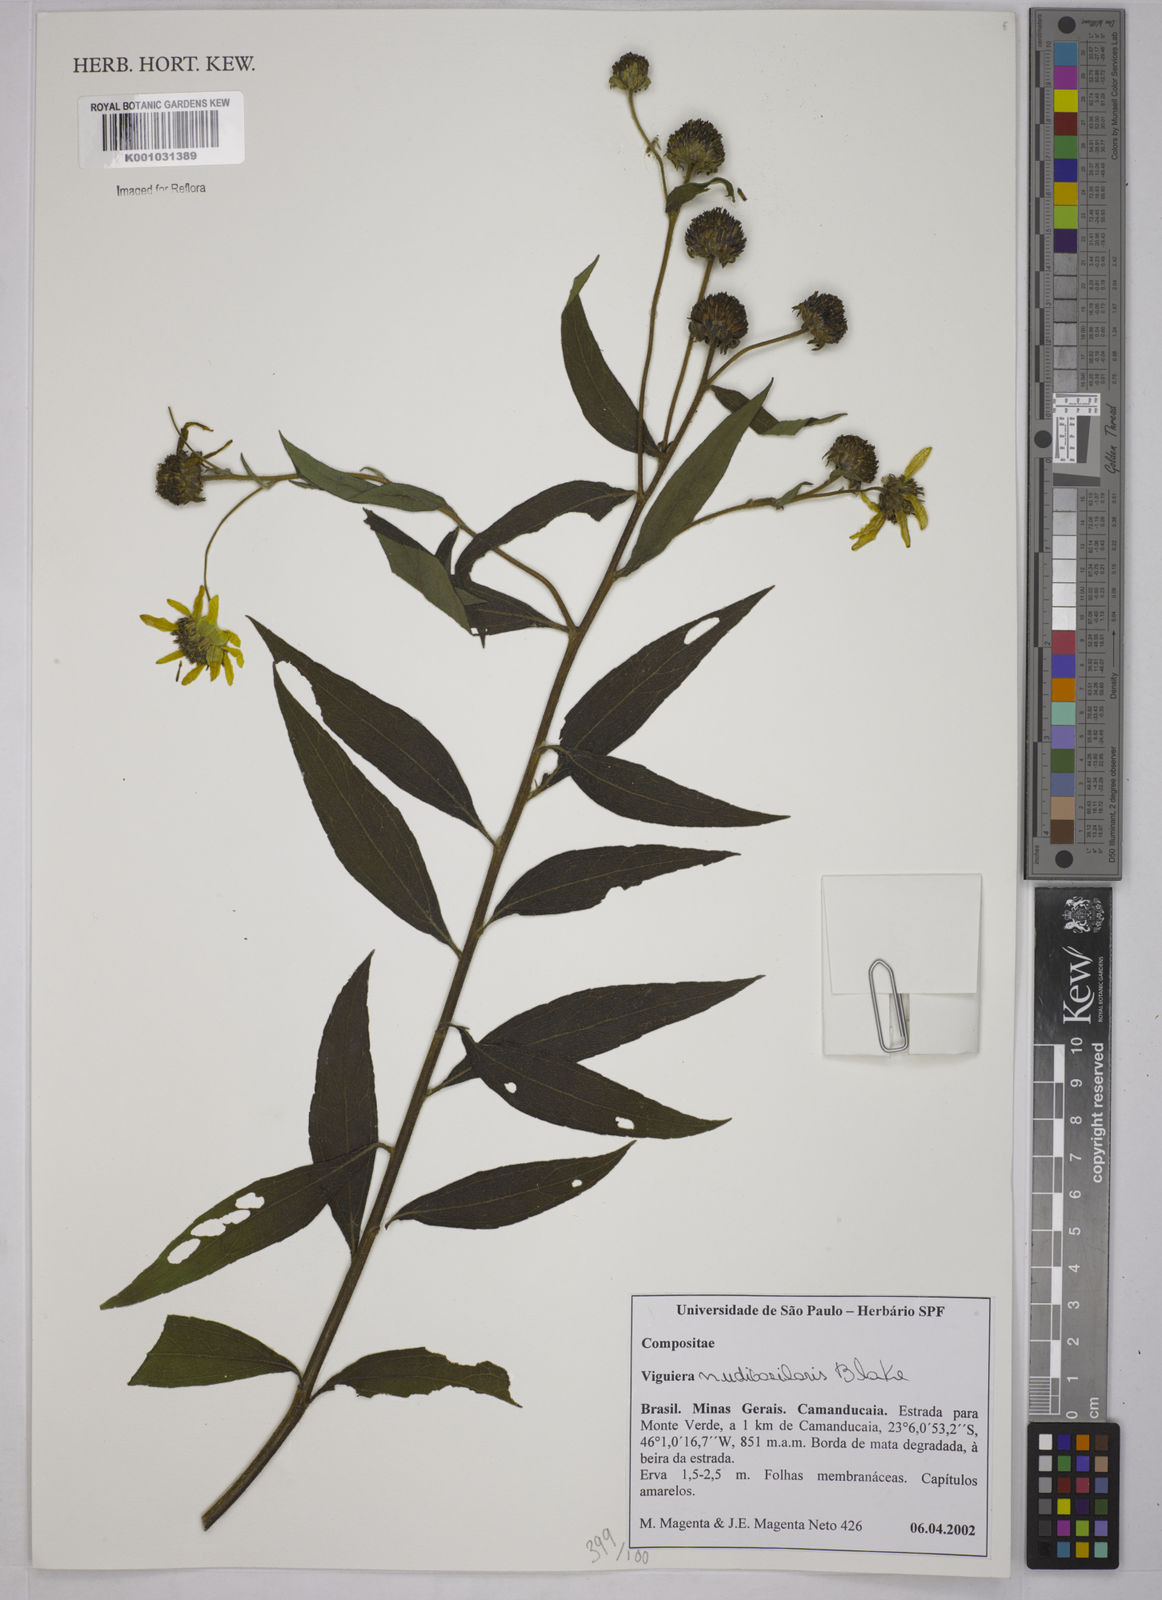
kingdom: Plantae
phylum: Tracheophyta
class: Magnoliopsida
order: Asterales
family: Asteraceae
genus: Aldama
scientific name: Aldama nudibasilaris
